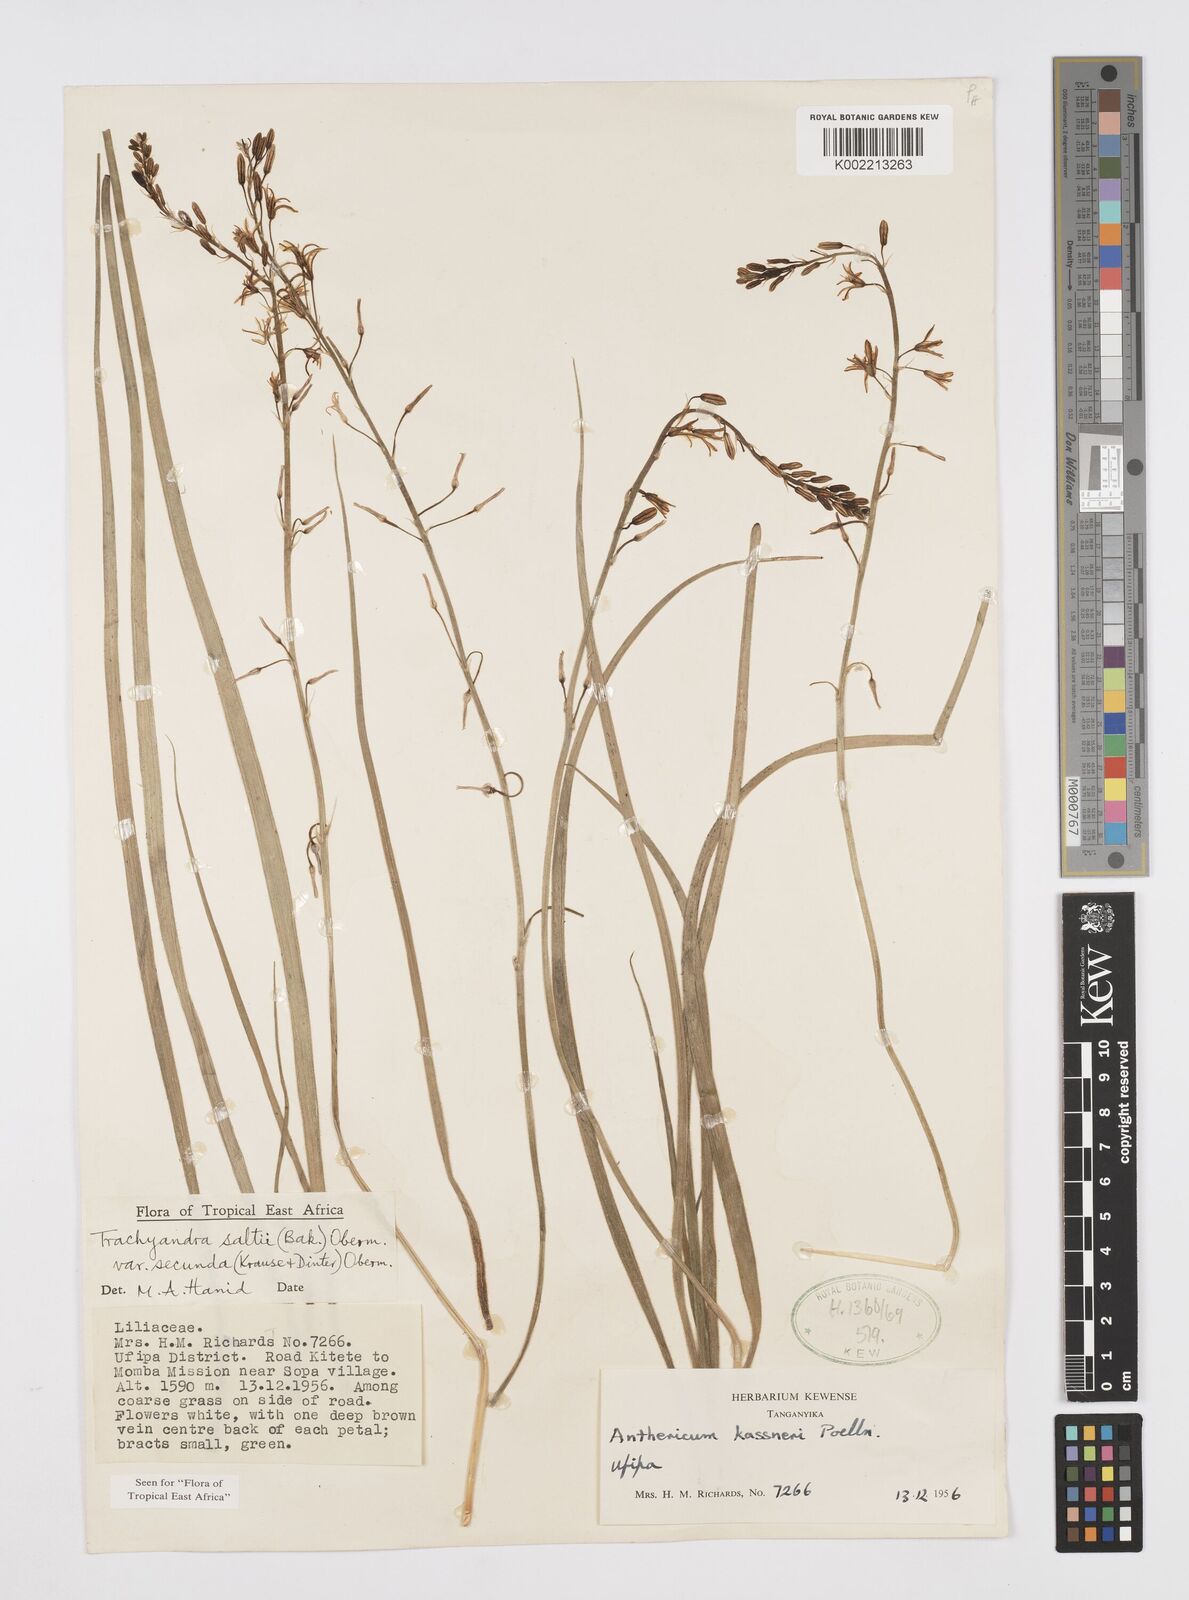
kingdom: Plantae
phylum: Tracheophyta
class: Liliopsida
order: Asparagales
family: Asphodelaceae
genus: Trachyandra
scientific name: Trachyandra saltii
